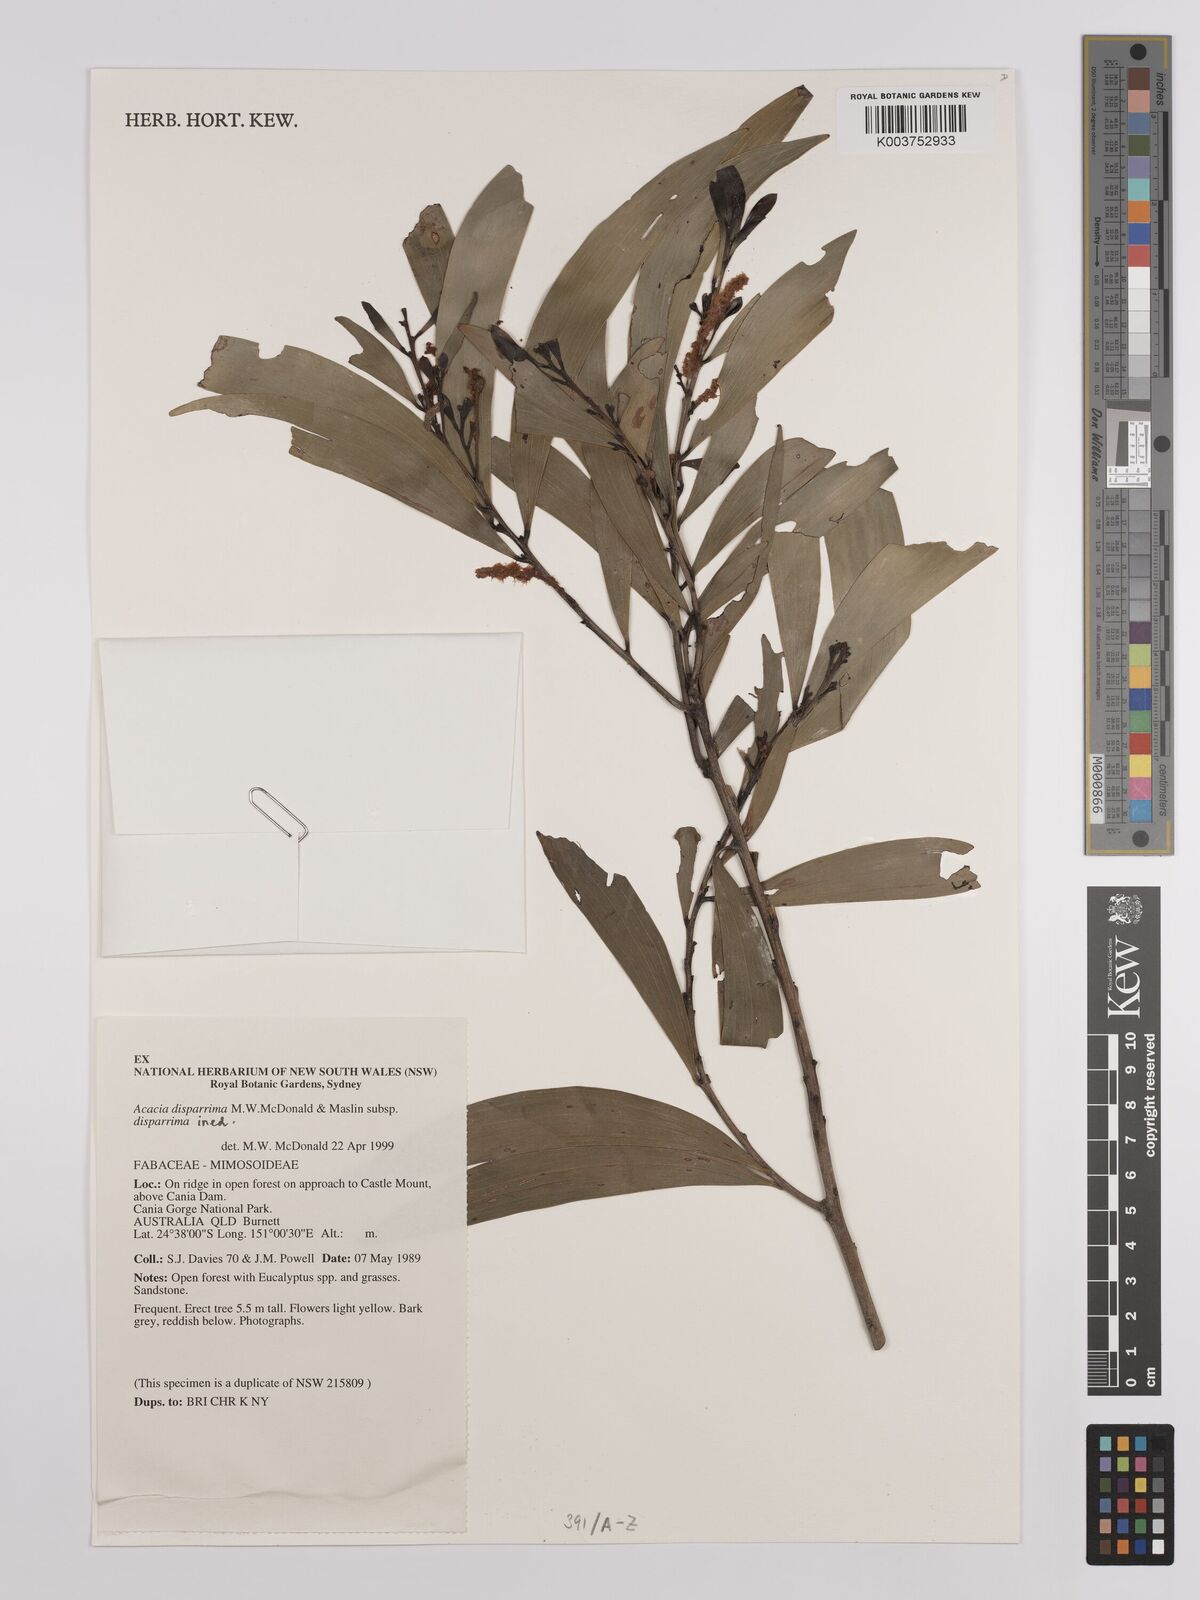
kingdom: Plantae
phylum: Tracheophyta
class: Magnoliopsida
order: Fabales
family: Fabaceae
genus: Acacia
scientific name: Acacia disparrima
